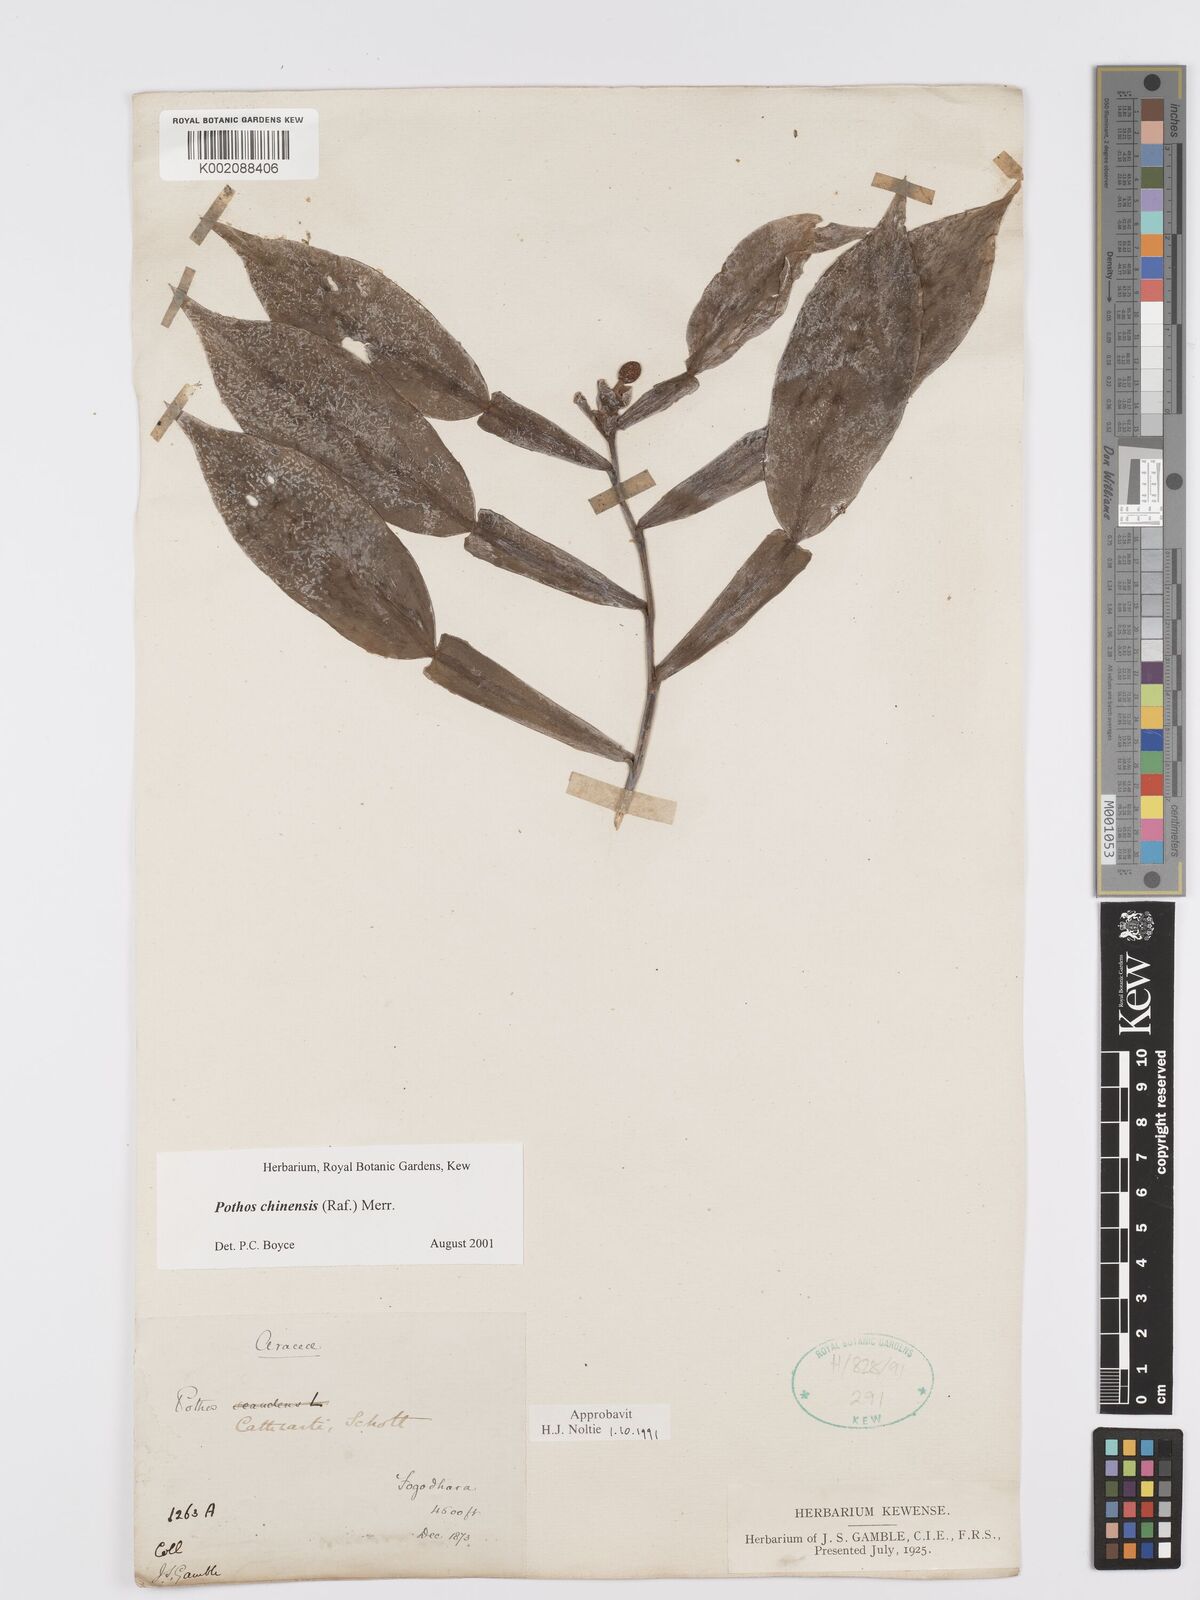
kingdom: Plantae
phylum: Tracheophyta
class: Liliopsida
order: Alismatales
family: Araceae
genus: Pothos
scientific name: Pothos chinensis
